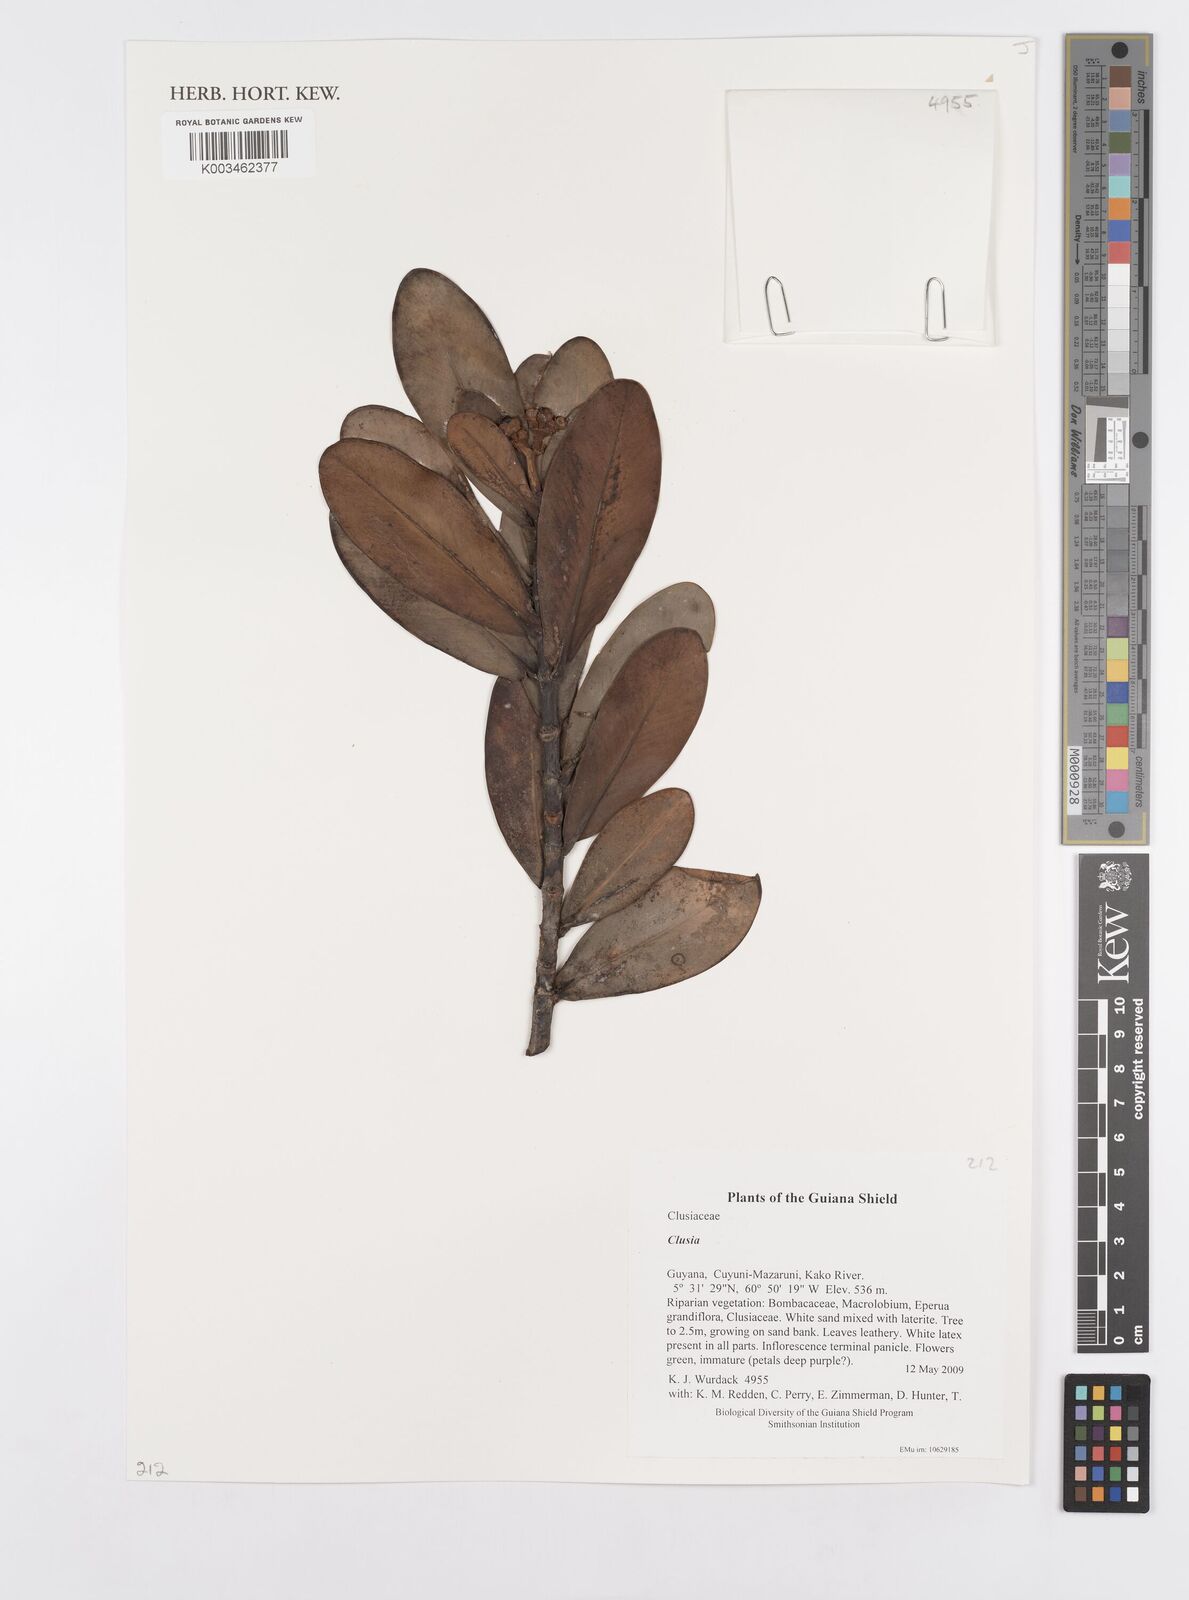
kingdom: Plantae
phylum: Tracheophyta
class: Magnoliopsida
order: Malpighiales
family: Clusiaceae
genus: Clusia
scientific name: Clusia
